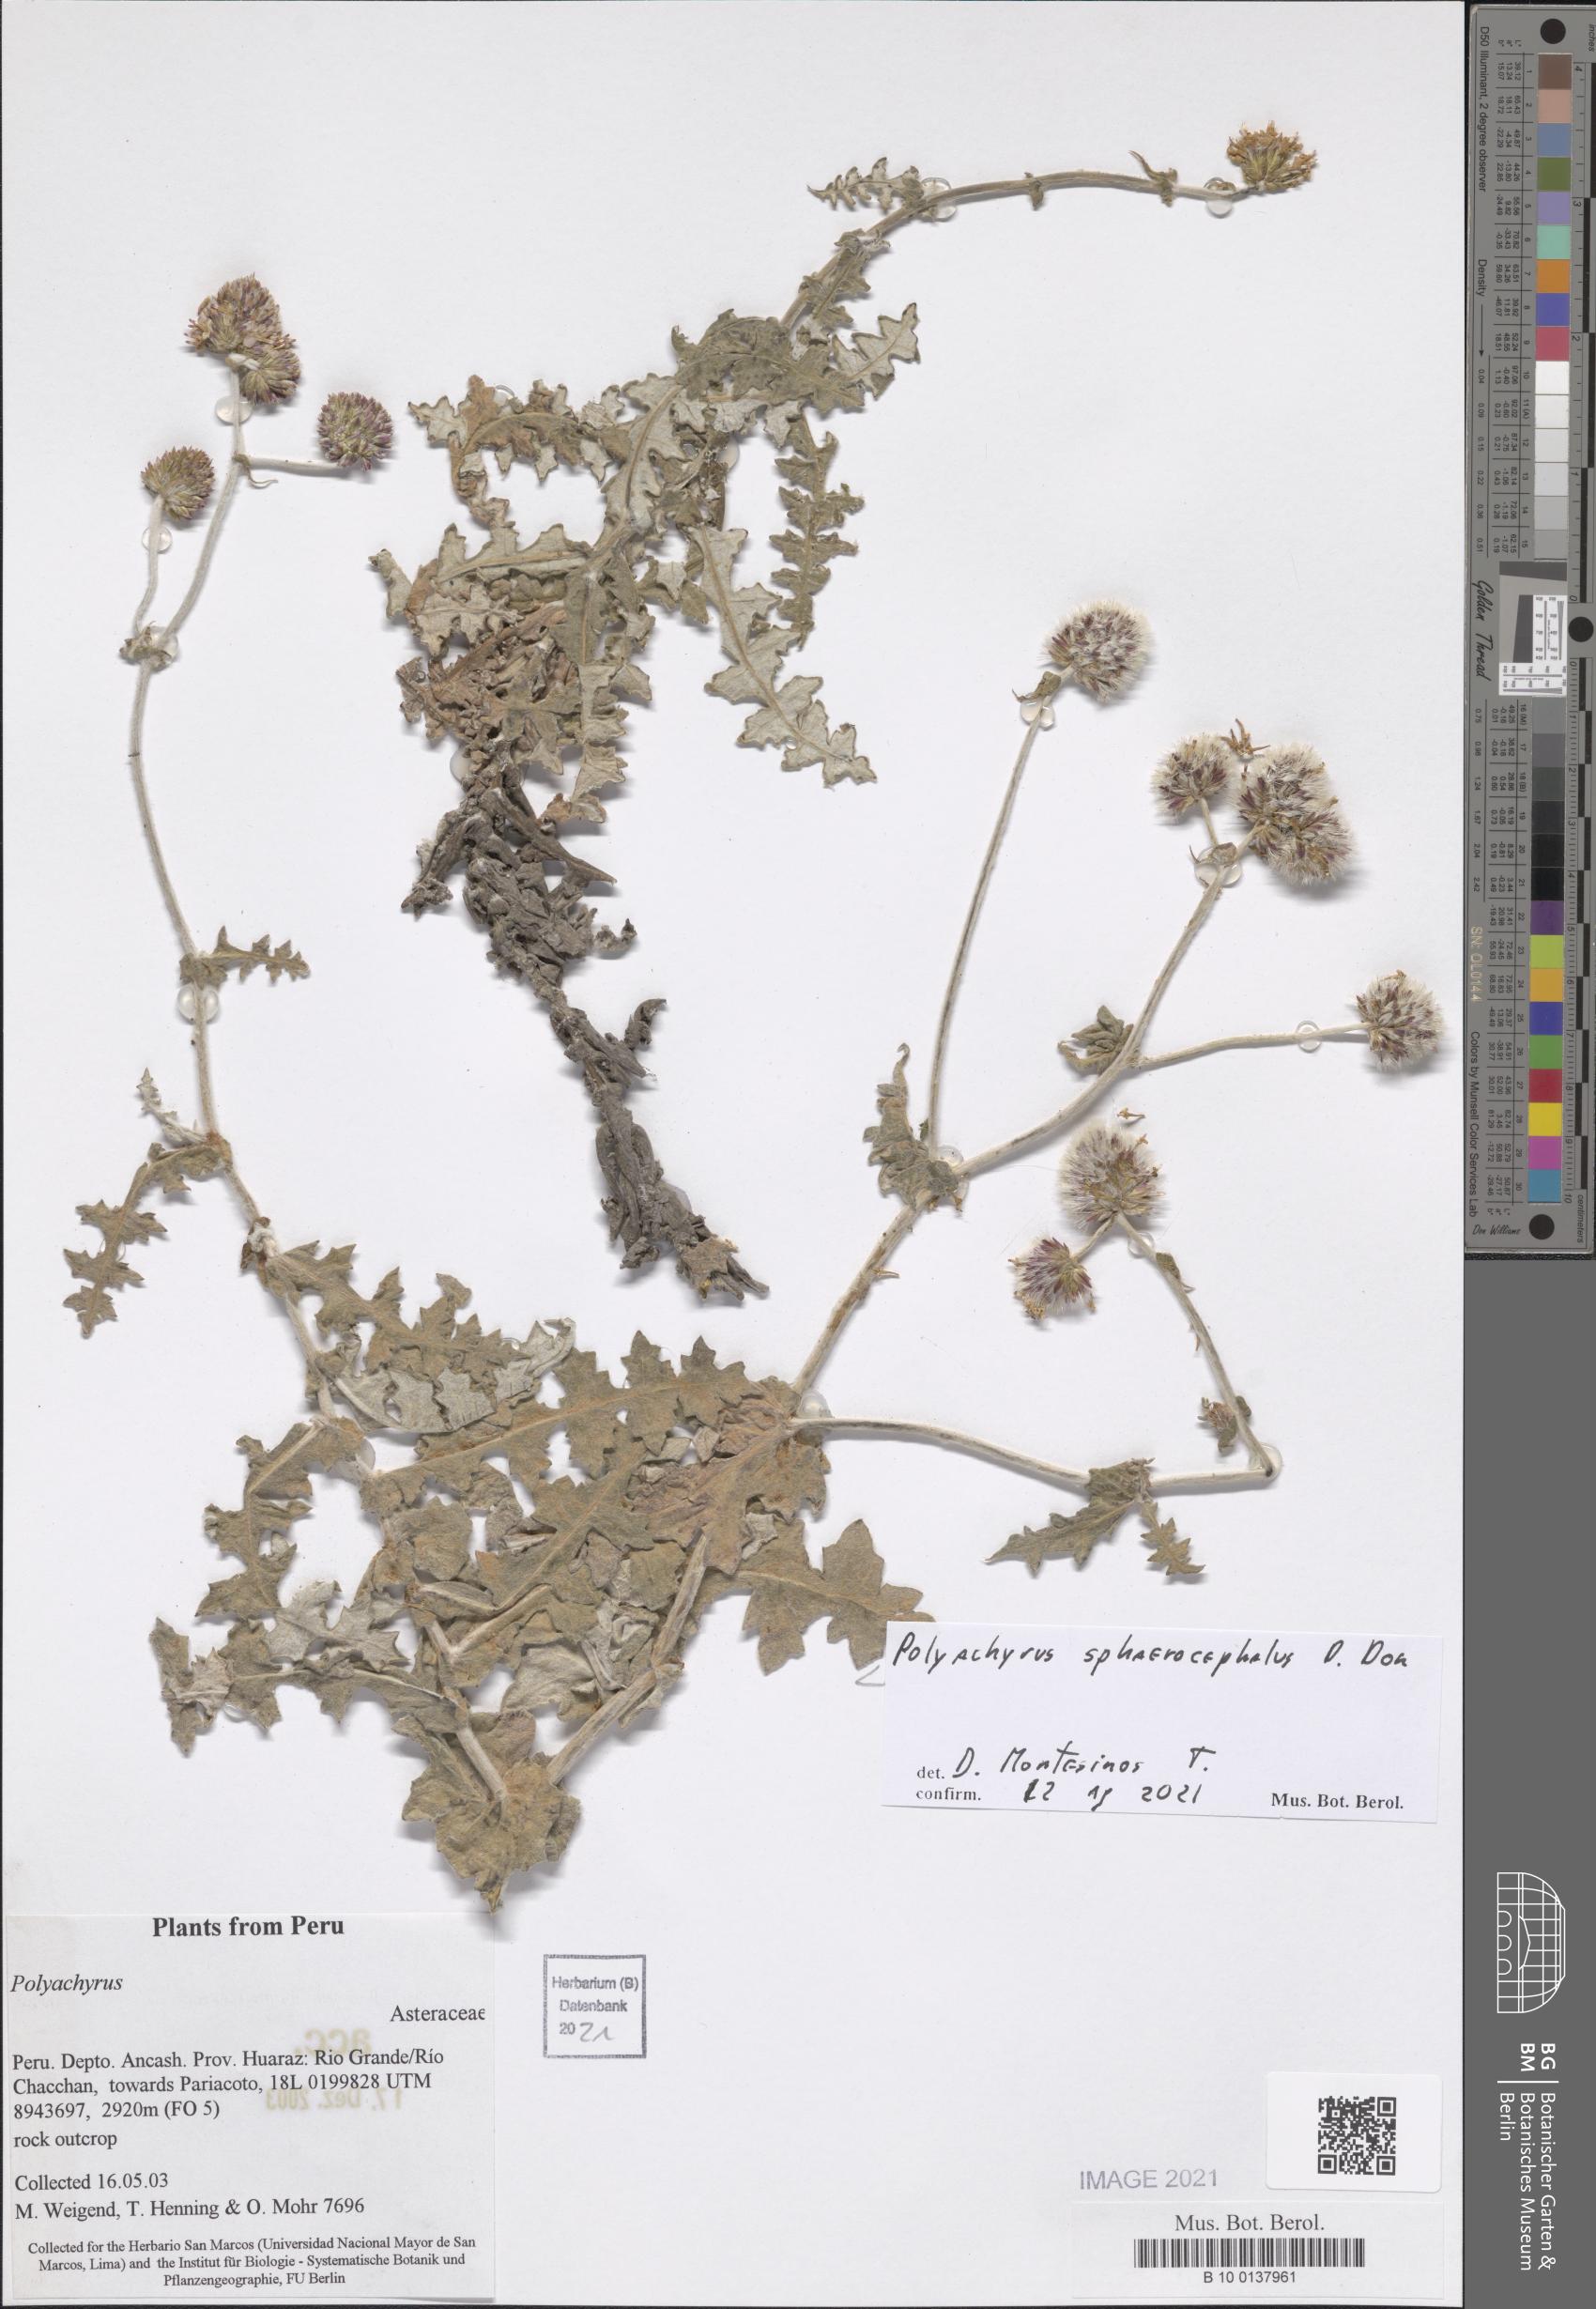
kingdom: Plantae
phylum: Tracheophyta
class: Magnoliopsida
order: Asterales
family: Asteraceae
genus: Polyachyrus
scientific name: Polyachyrus sphaerocephalus
